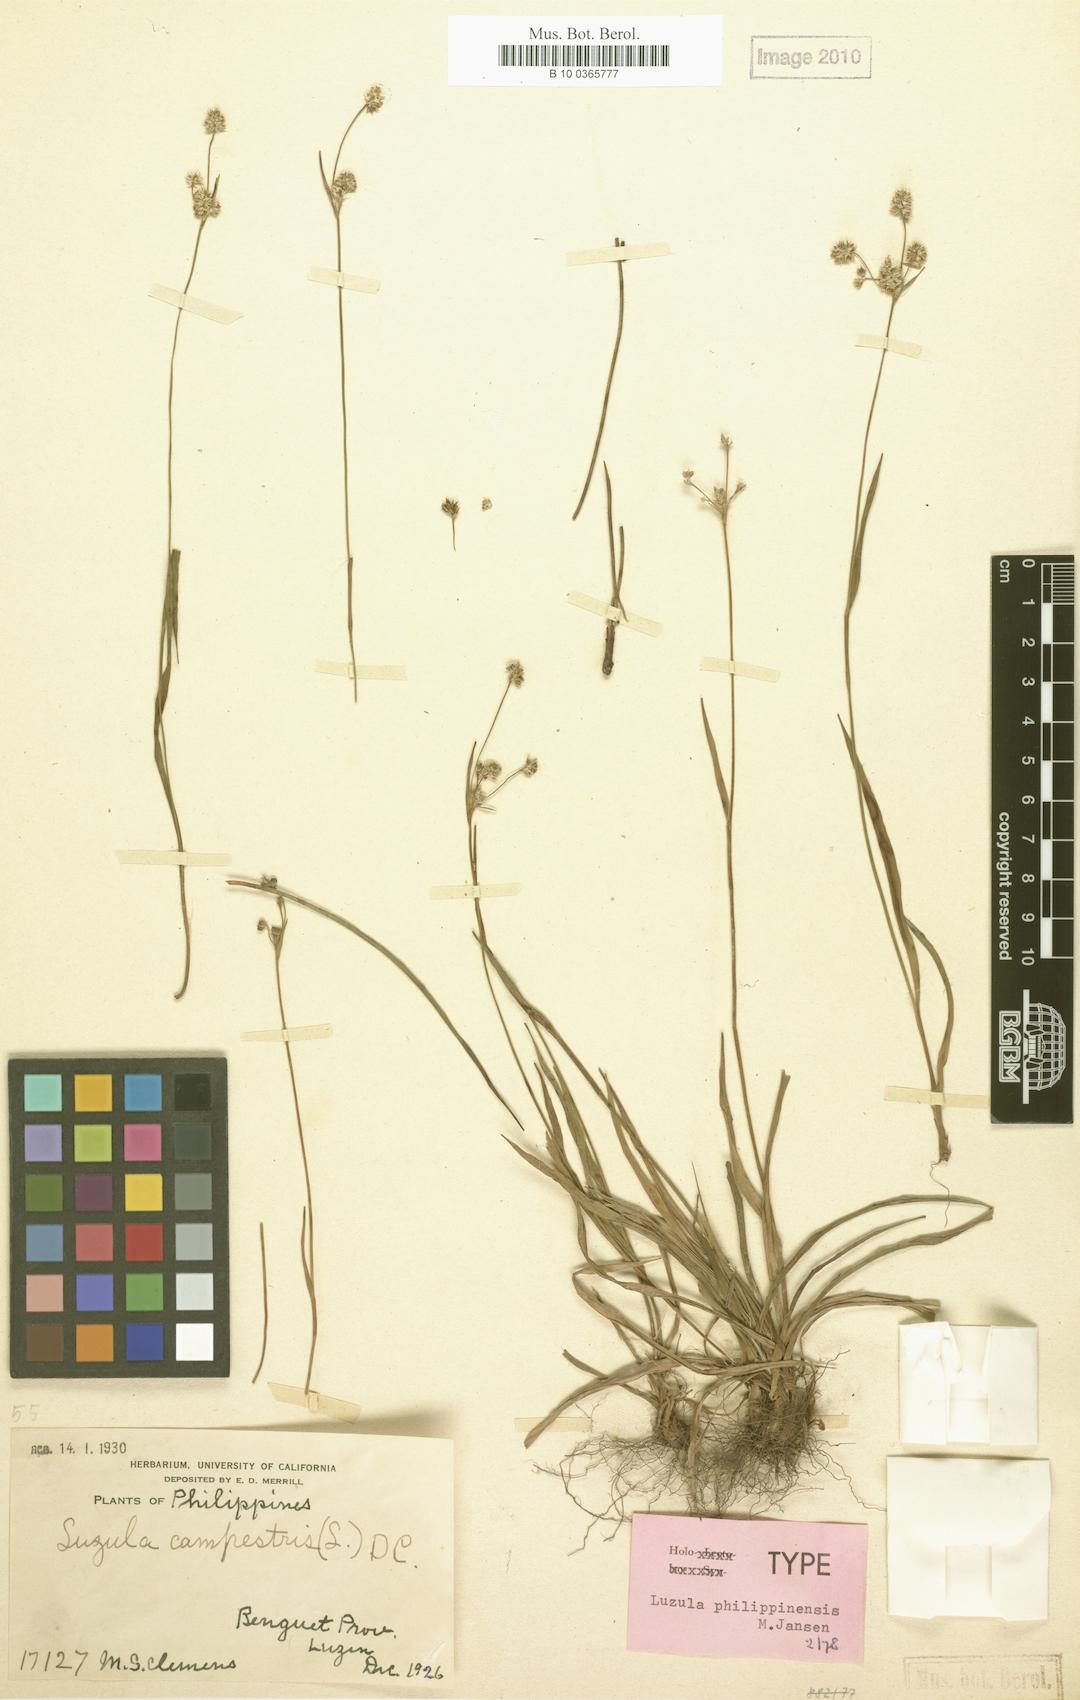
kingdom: Plantae
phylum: Tracheophyta
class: Liliopsida
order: Poales
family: Juncaceae
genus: Luzula
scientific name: Luzula philippinensis
